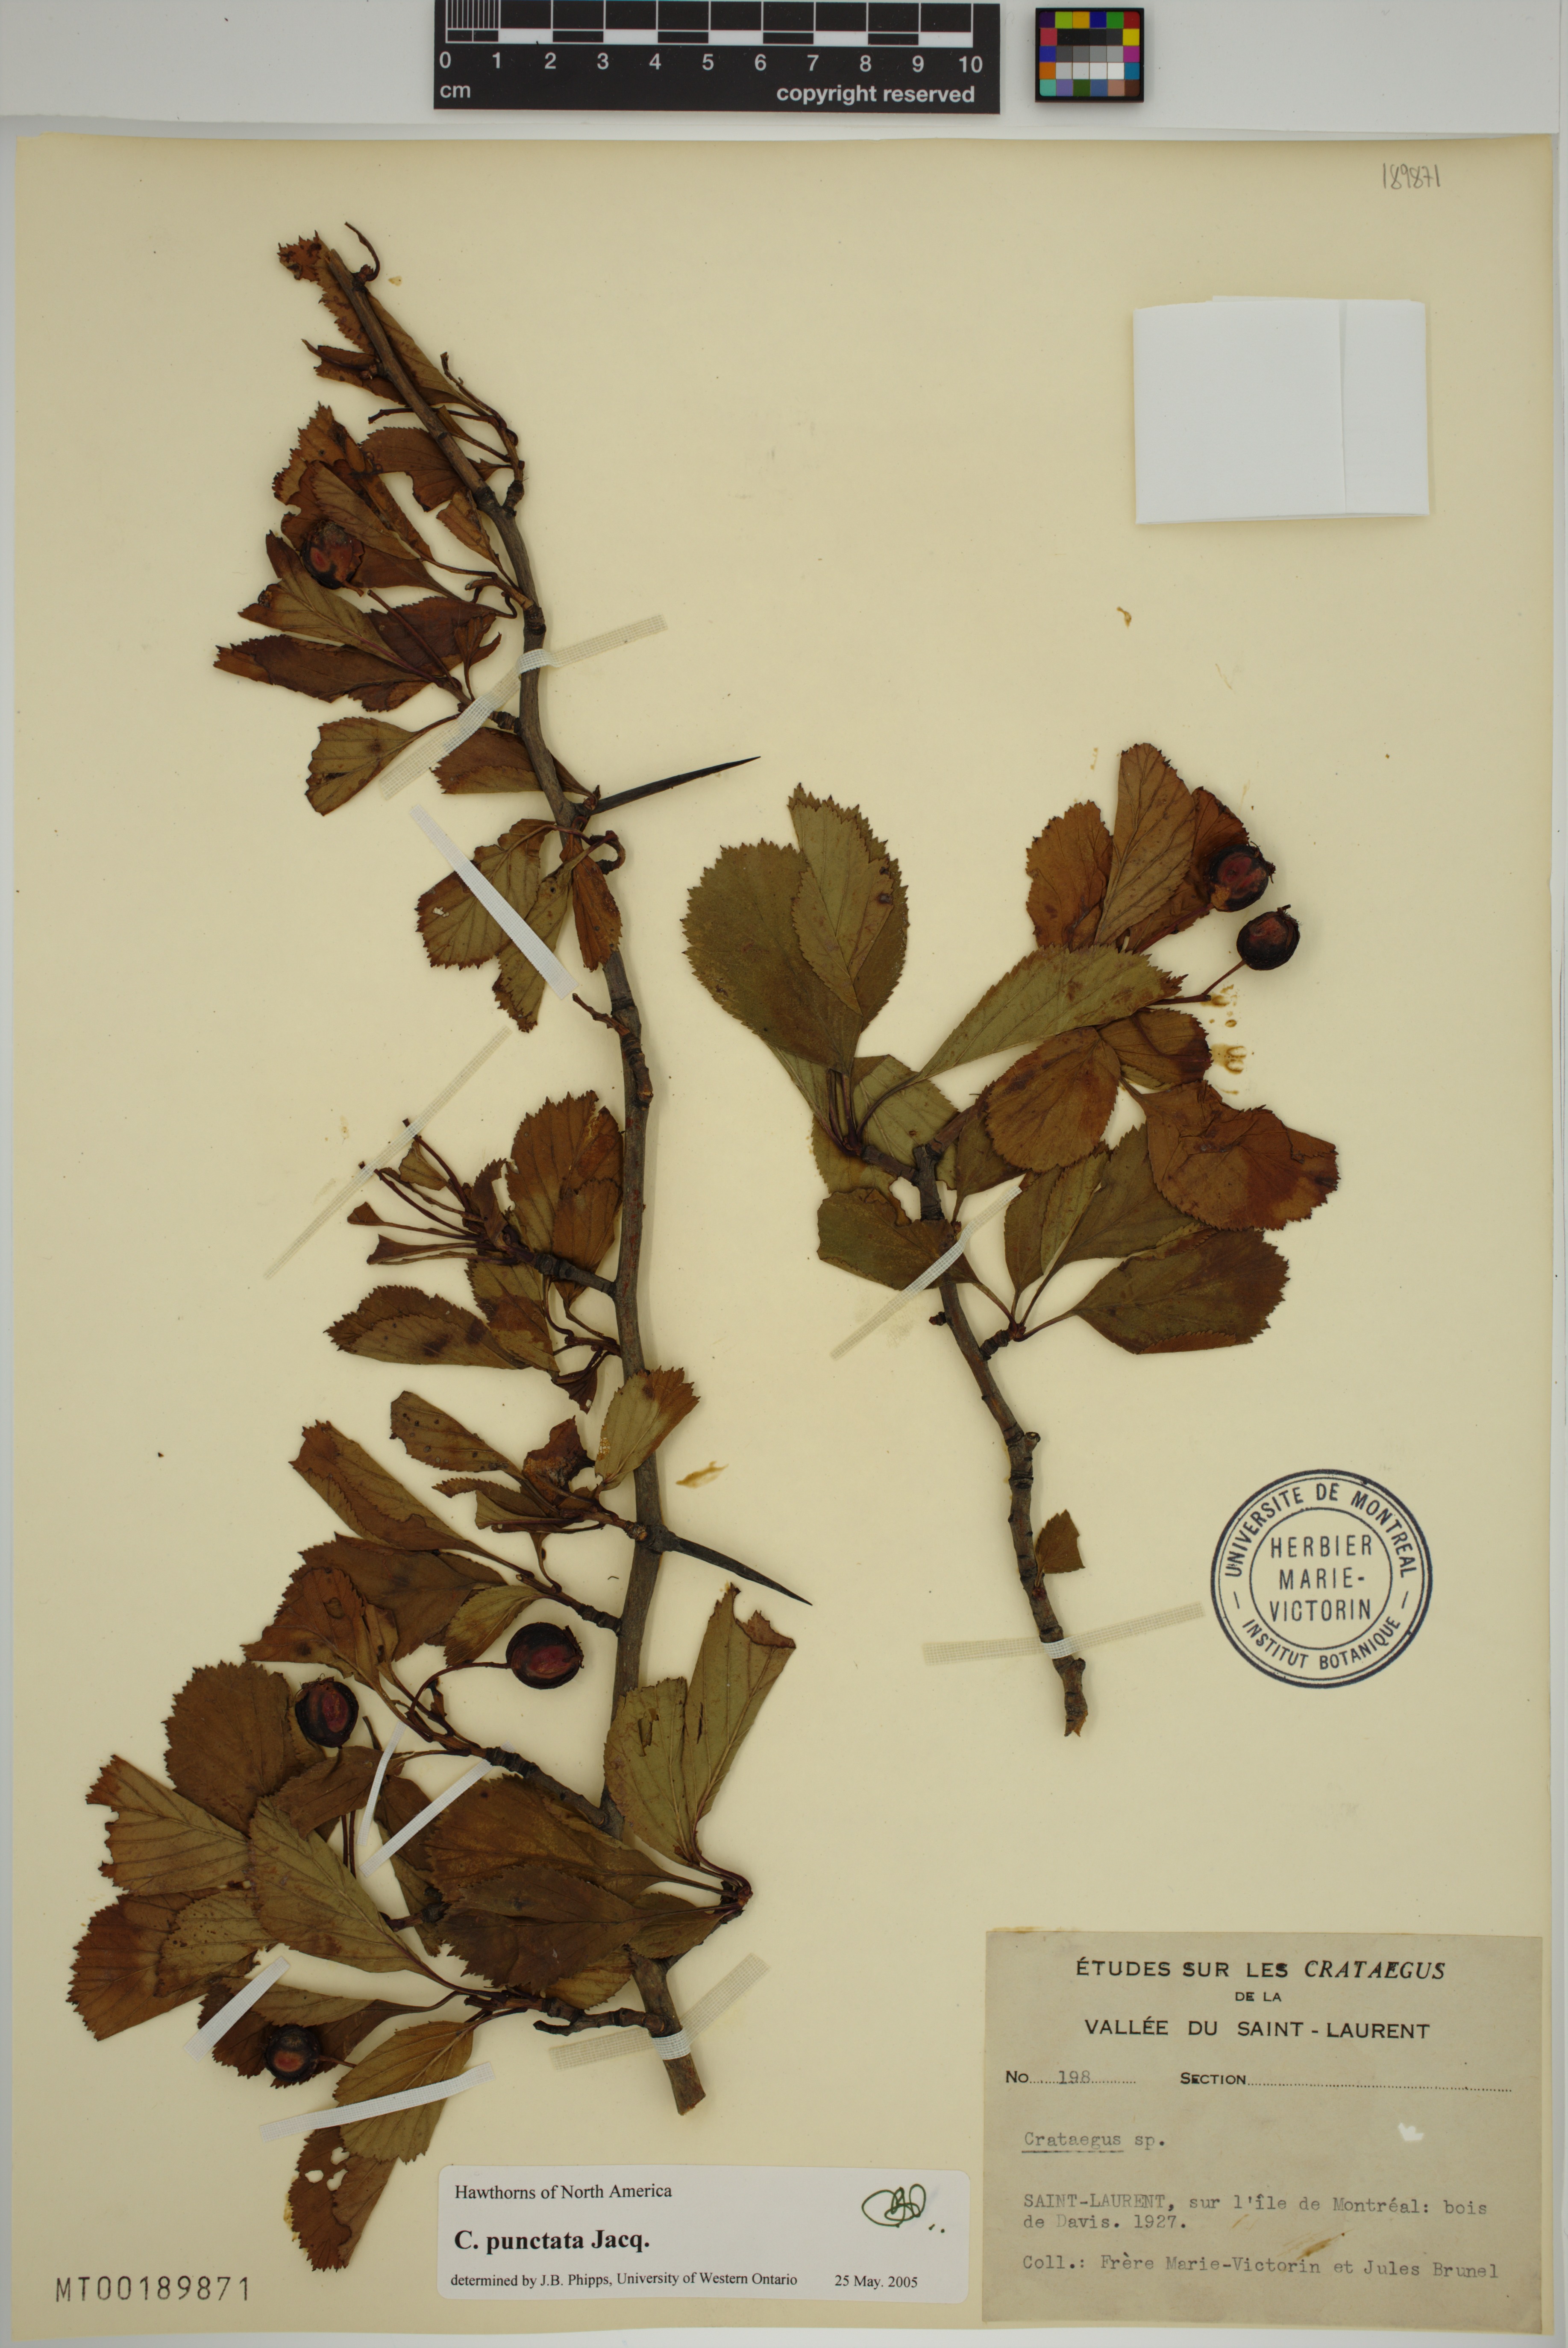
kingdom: Plantae
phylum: Tracheophyta
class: Magnoliopsida
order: Rosales
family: Rosaceae
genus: Crataegus
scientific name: Crataegus punctata
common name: Dotted hawthorn
